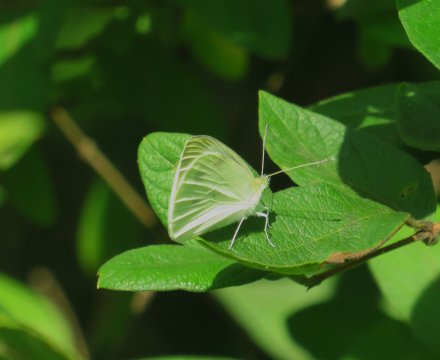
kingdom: Animalia
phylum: Arthropoda
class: Insecta
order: Lepidoptera
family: Pieridae
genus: Pieris
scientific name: Pieris rapae
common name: Cabbage White
